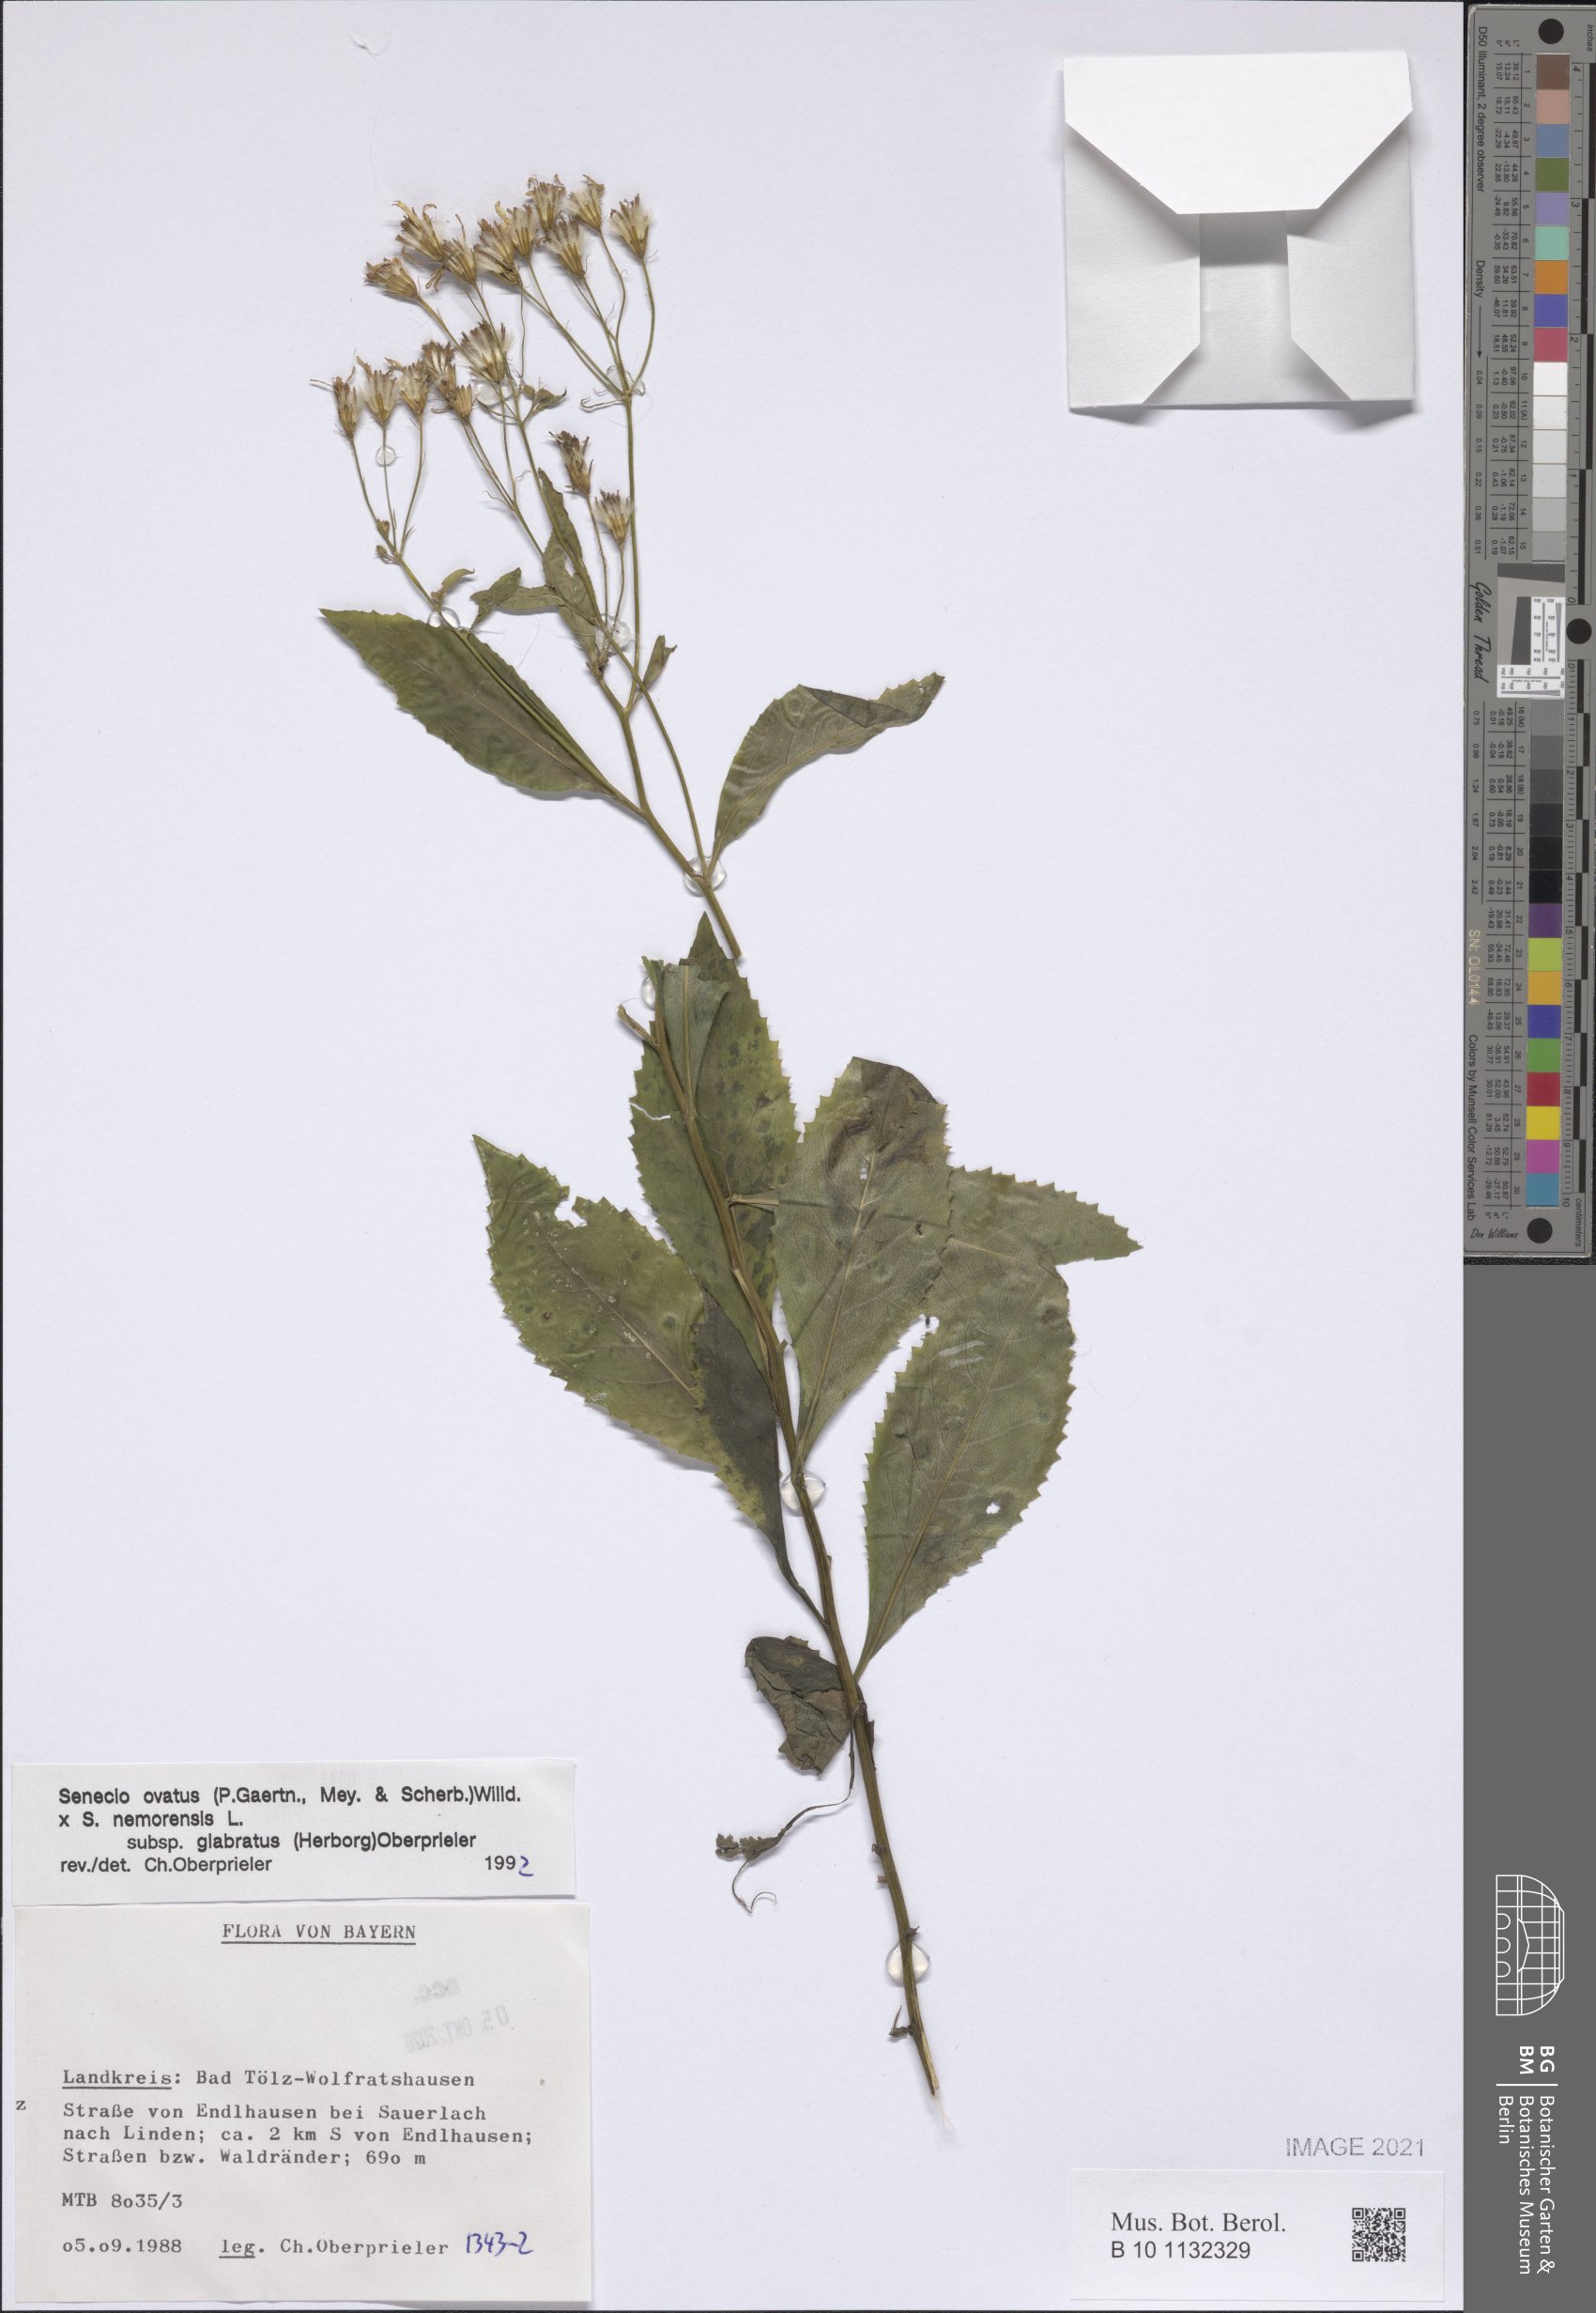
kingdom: Plantae
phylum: Tracheophyta
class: Magnoliopsida
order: Asterales
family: Asteraceae
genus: Senecio
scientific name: Senecio ovatus
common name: Wood ragwort
